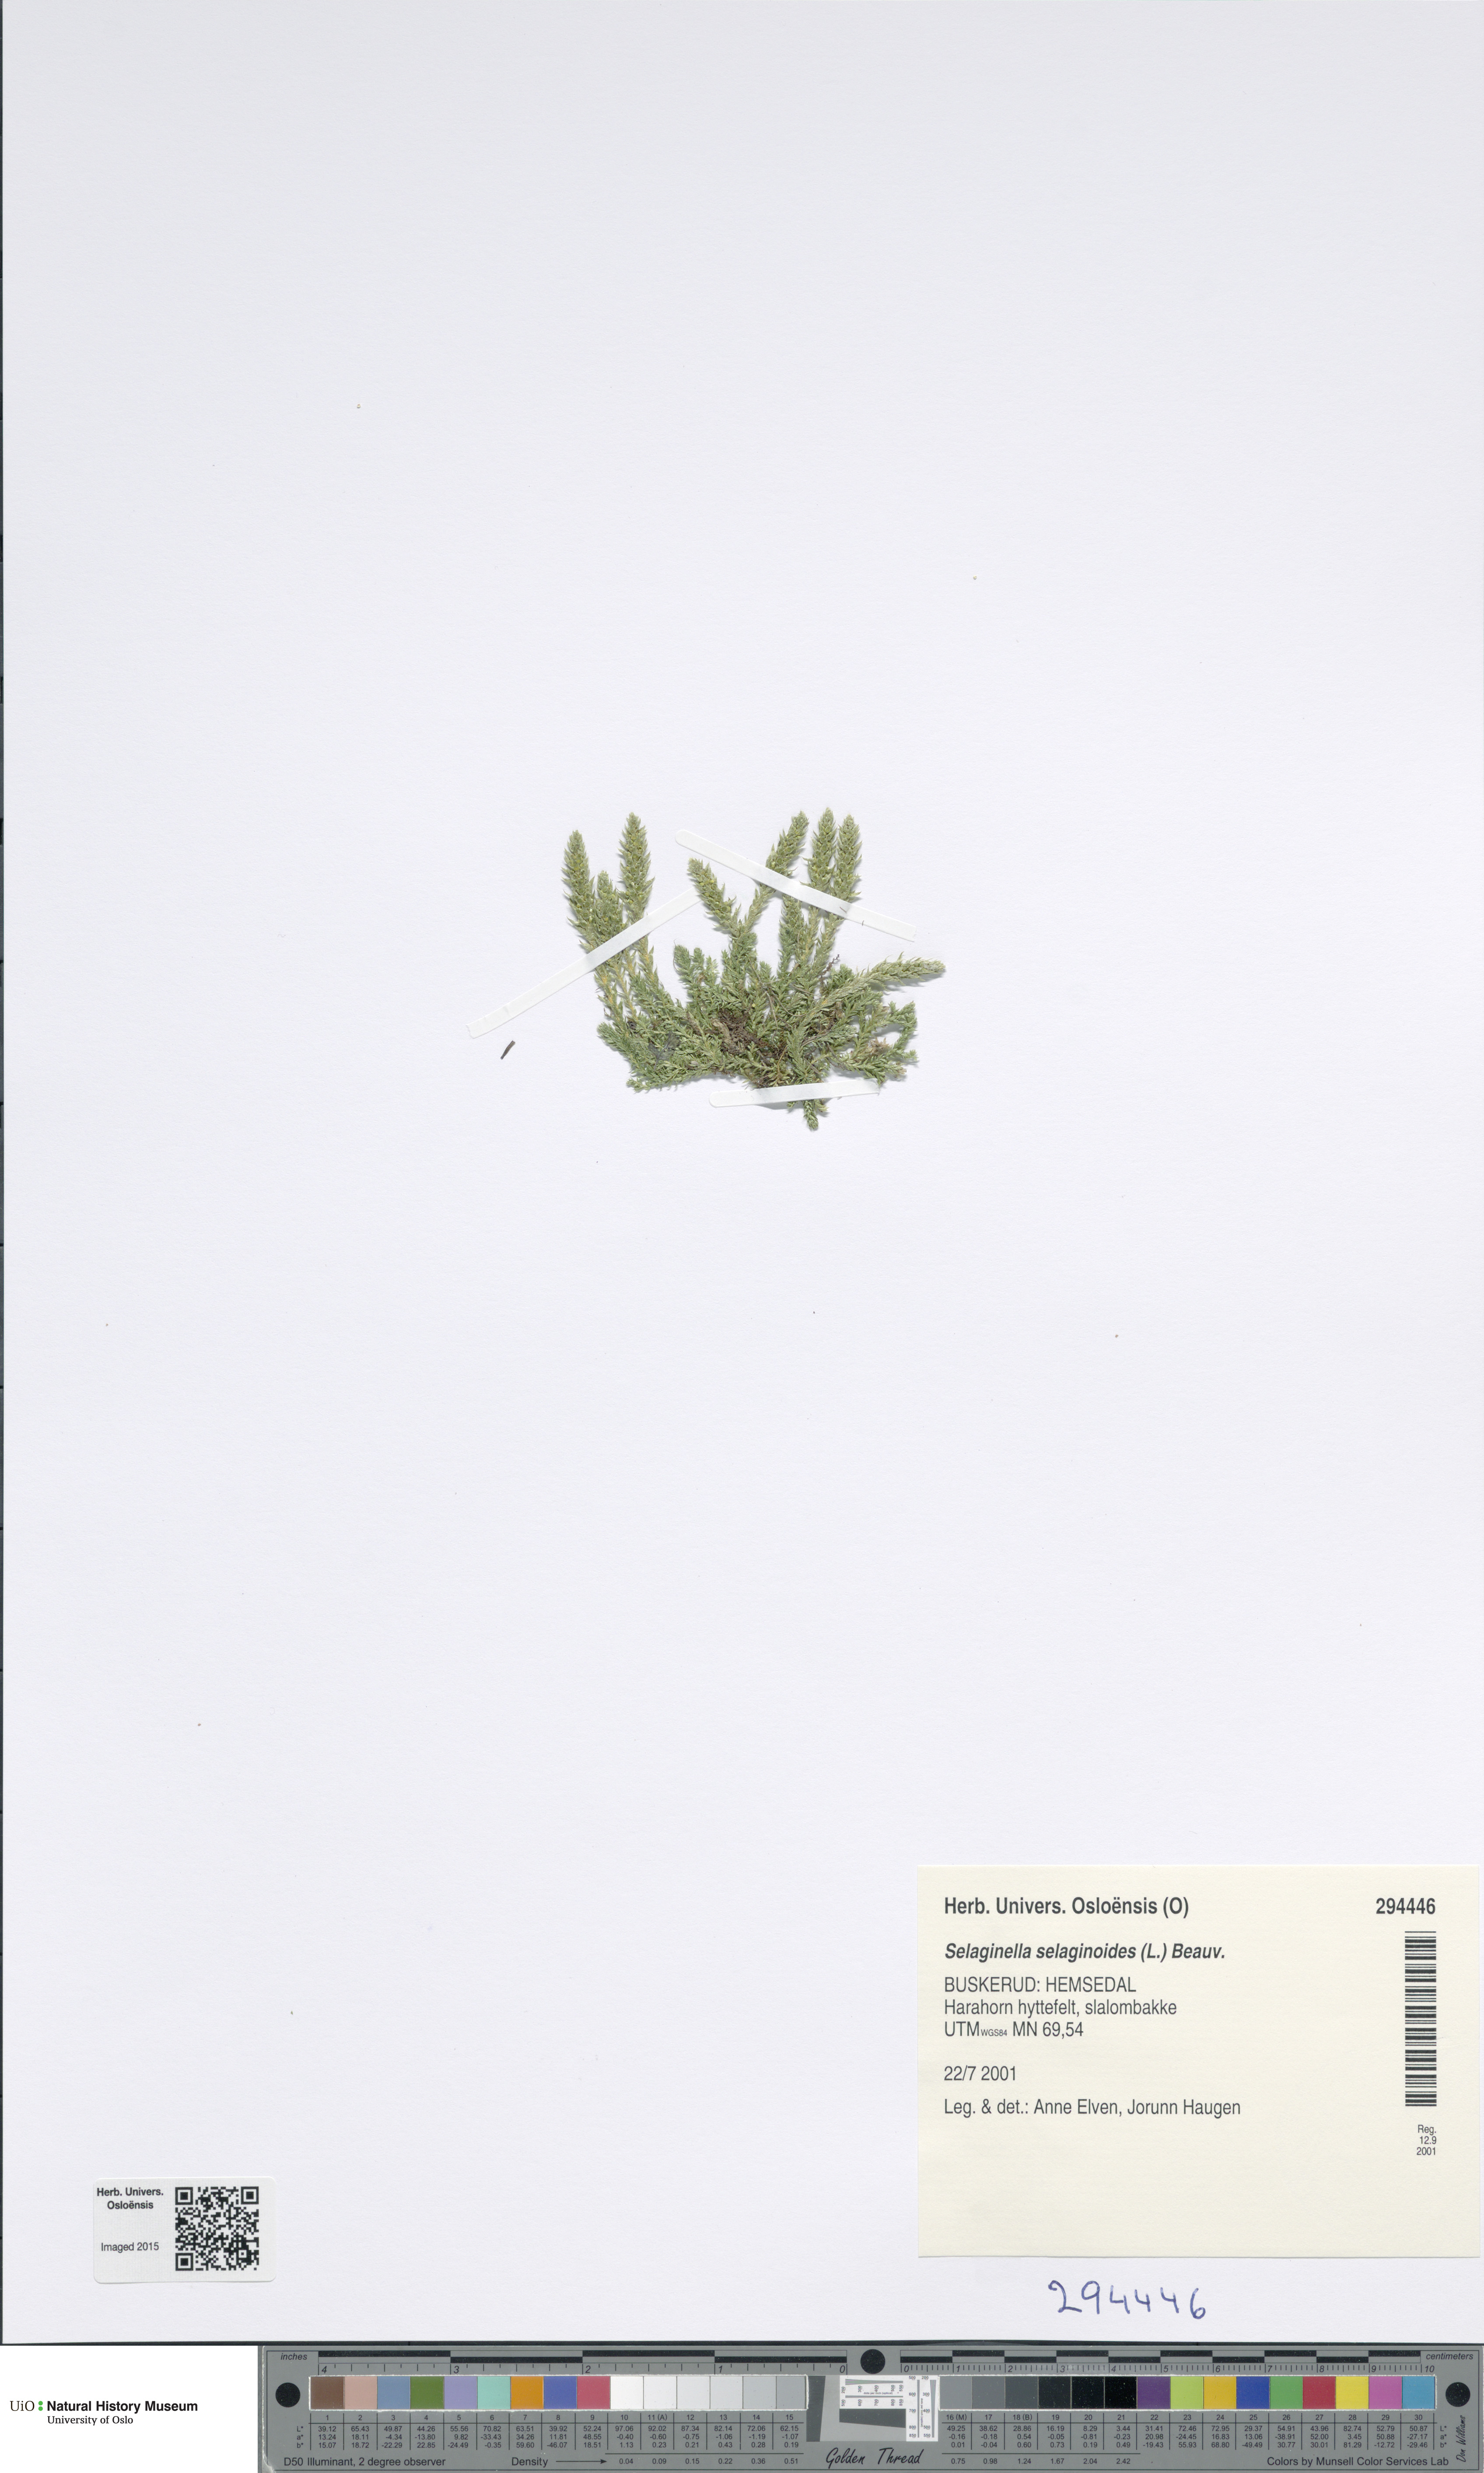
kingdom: Plantae
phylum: Tracheophyta
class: Lycopodiopsida
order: Selaginellales
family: Selaginellaceae
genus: Selaginella
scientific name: Selaginella selaginoides
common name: Prickly mountain-moss
